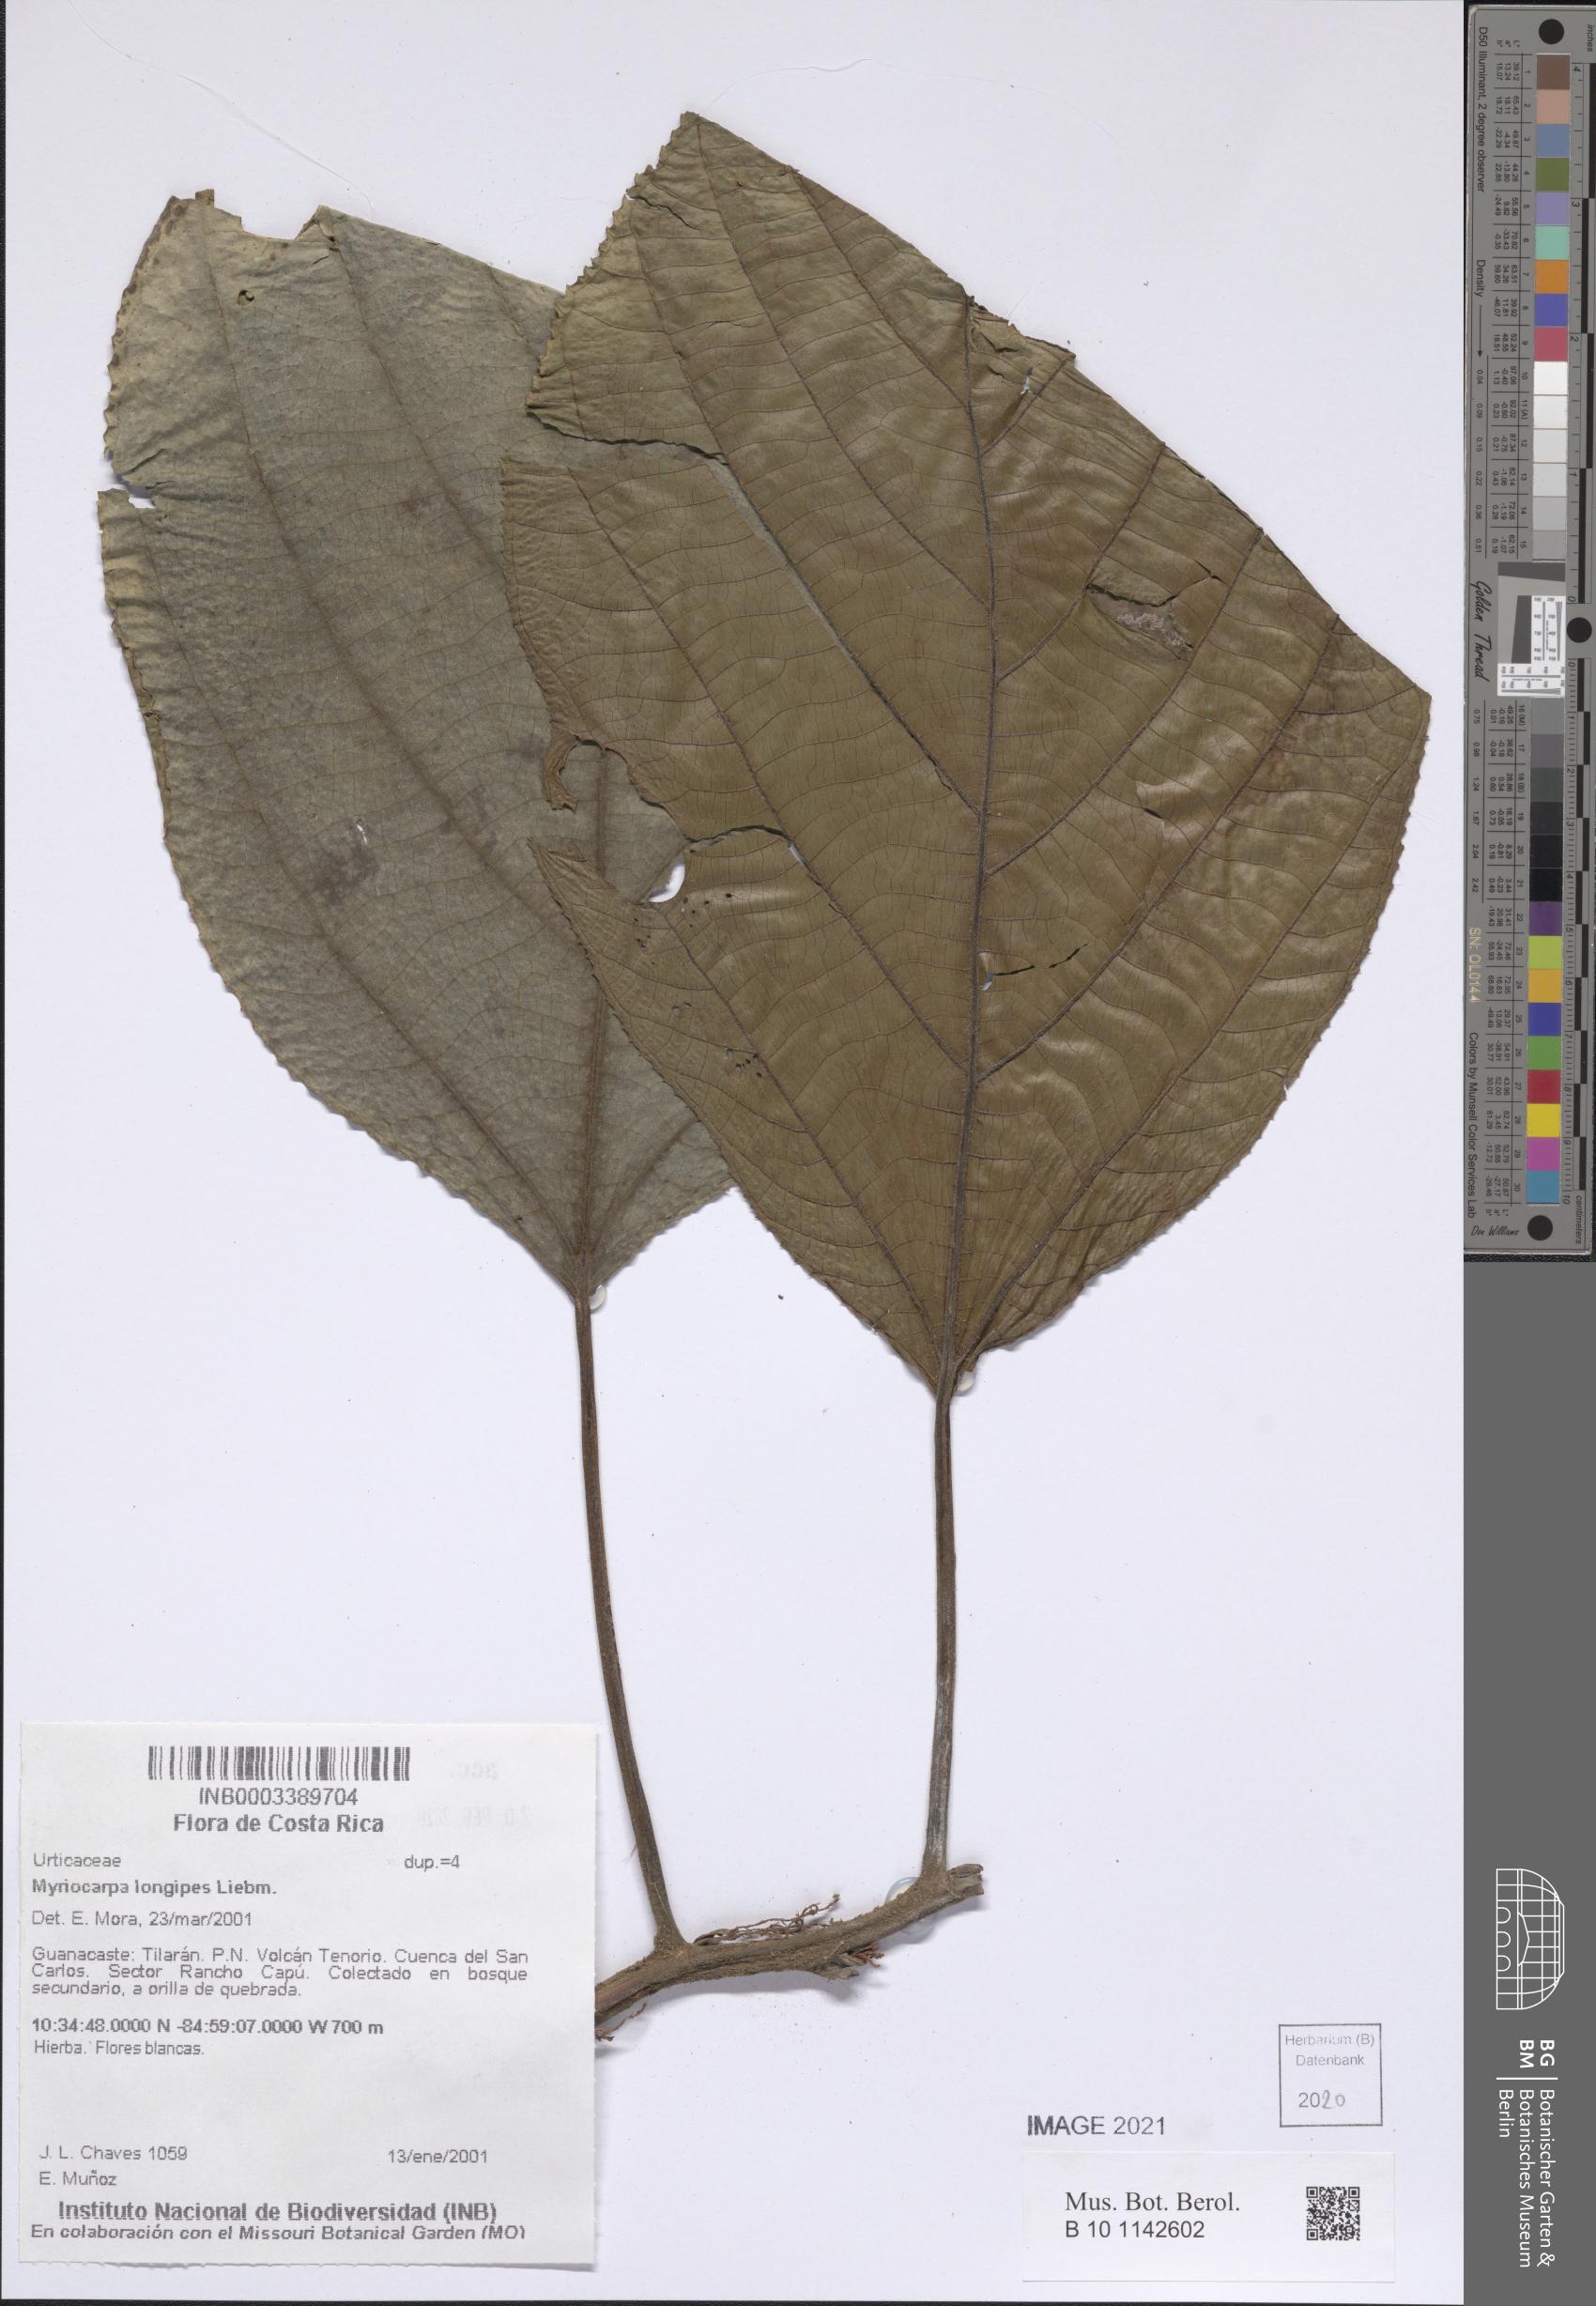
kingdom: Plantae
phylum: Tracheophyta
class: Magnoliopsida
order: Rosales
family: Urticaceae
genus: Myriocarpa
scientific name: Myriocarpa longipes
